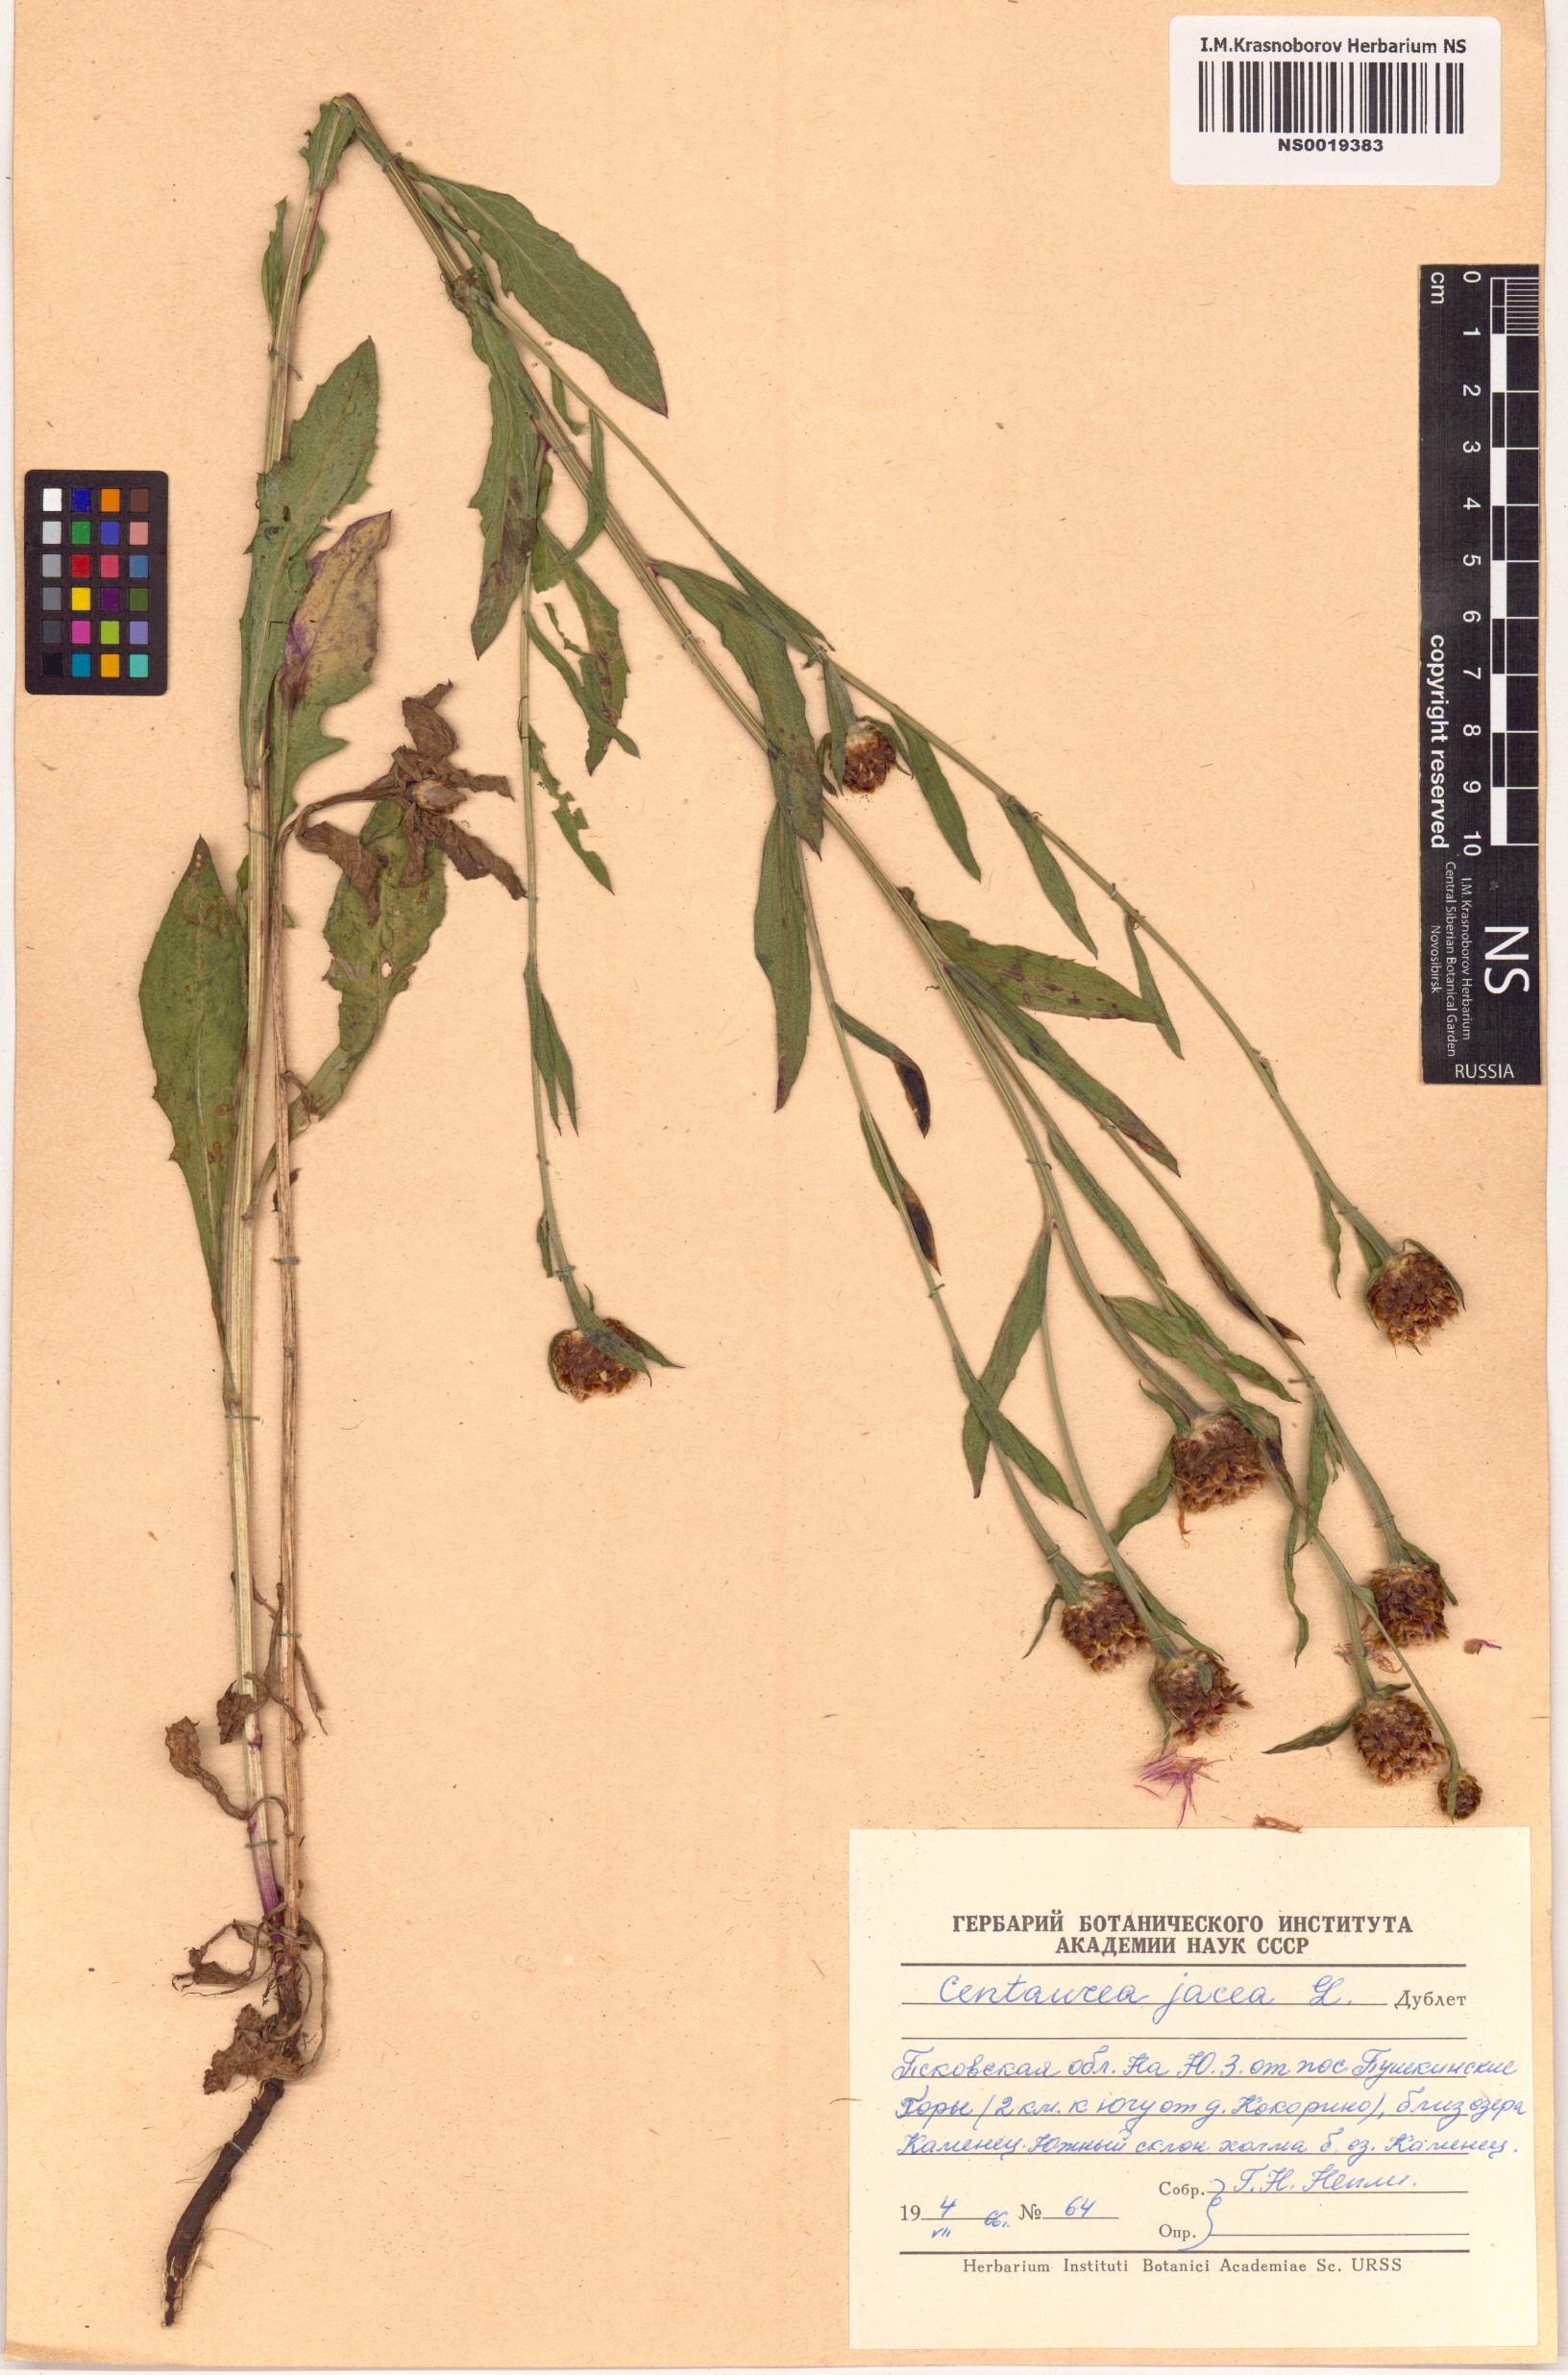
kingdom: Plantae
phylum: Tracheophyta
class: Magnoliopsida
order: Asterales
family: Asteraceae
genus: Centaurea
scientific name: Centaurea jacea
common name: Brown knapweed
